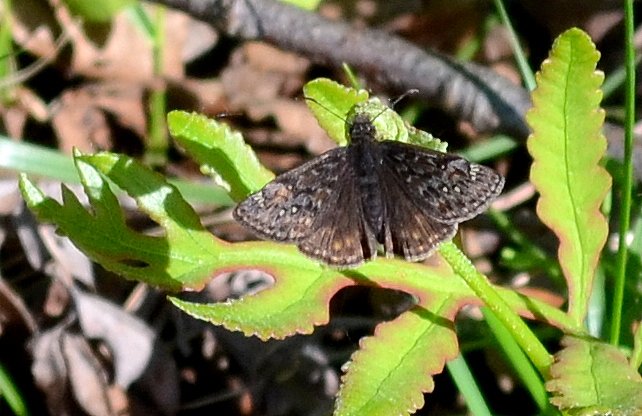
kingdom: Animalia
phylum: Arthropoda
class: Insecta
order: Lepidoptera
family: Hesperiidae
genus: Gesta
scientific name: Gesta
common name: Juvenal's Duskywing
